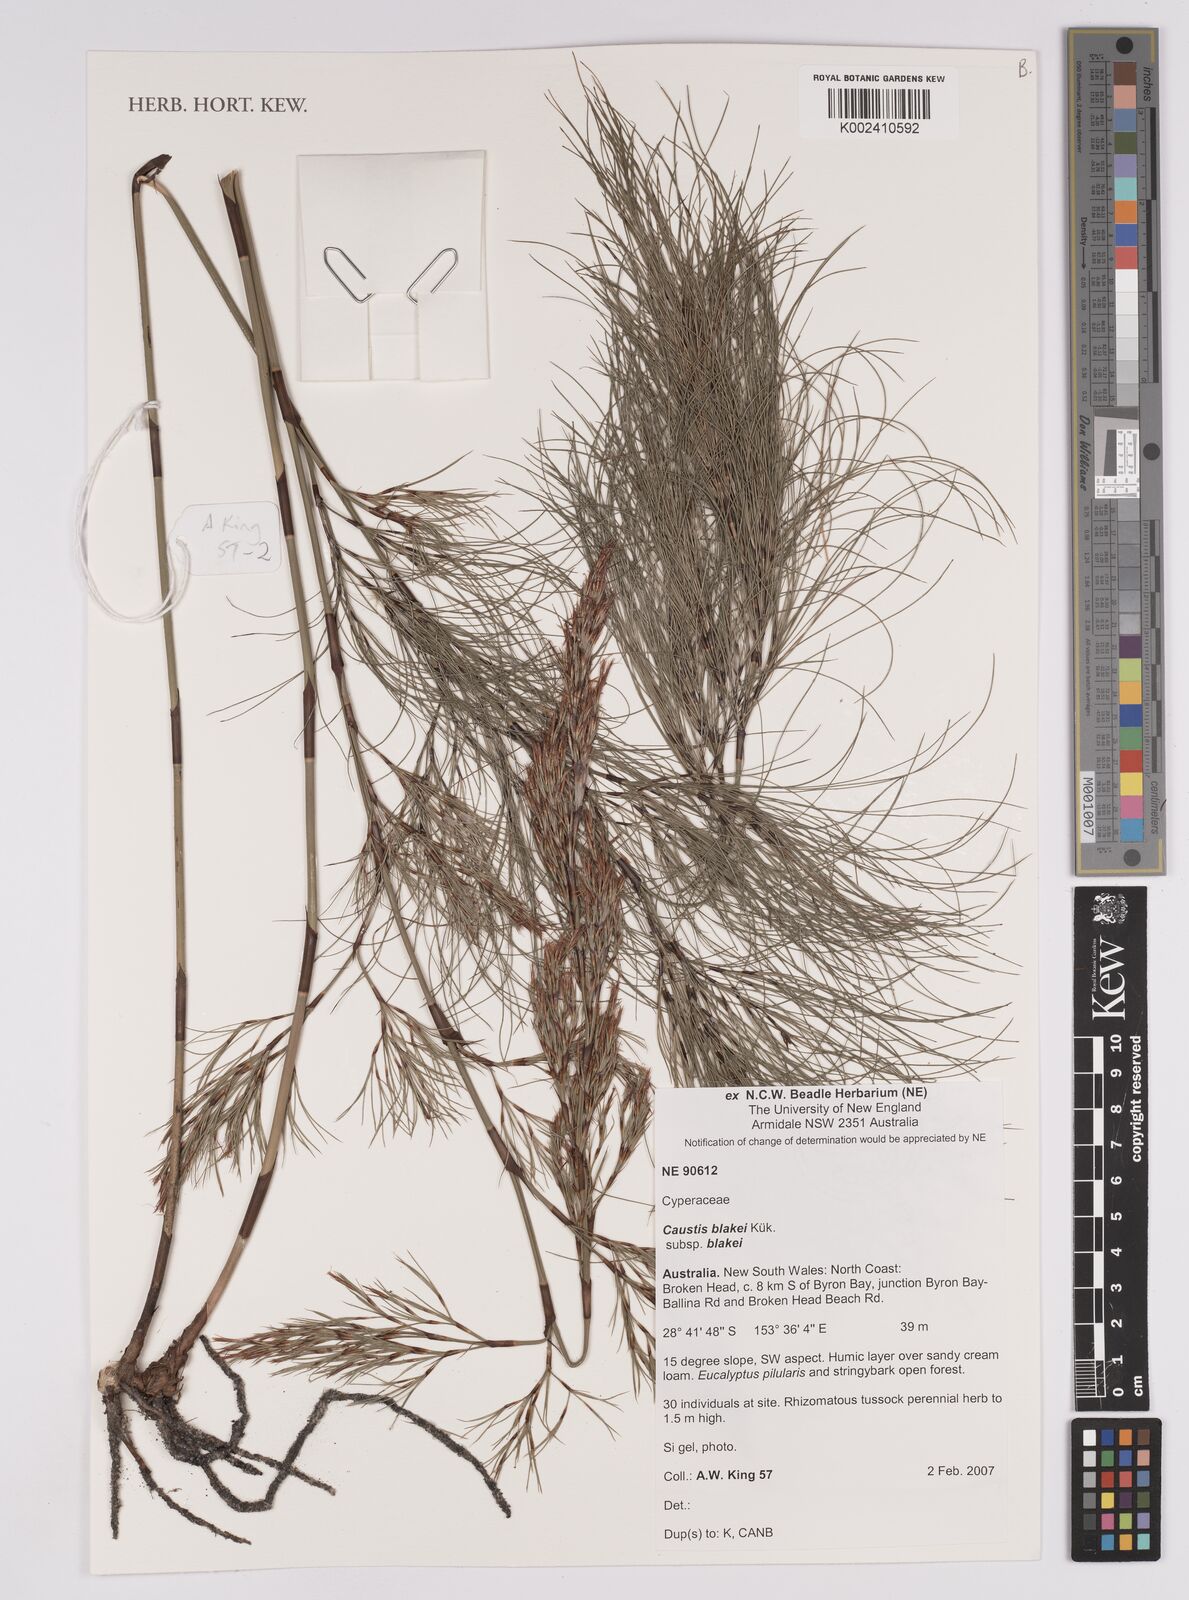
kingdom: Plantae
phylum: Tracheophyta
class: Liliopsida
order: Poales
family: Cyperaceae
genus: Caustis
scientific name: Caustis blakei
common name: Foxtail-fern
